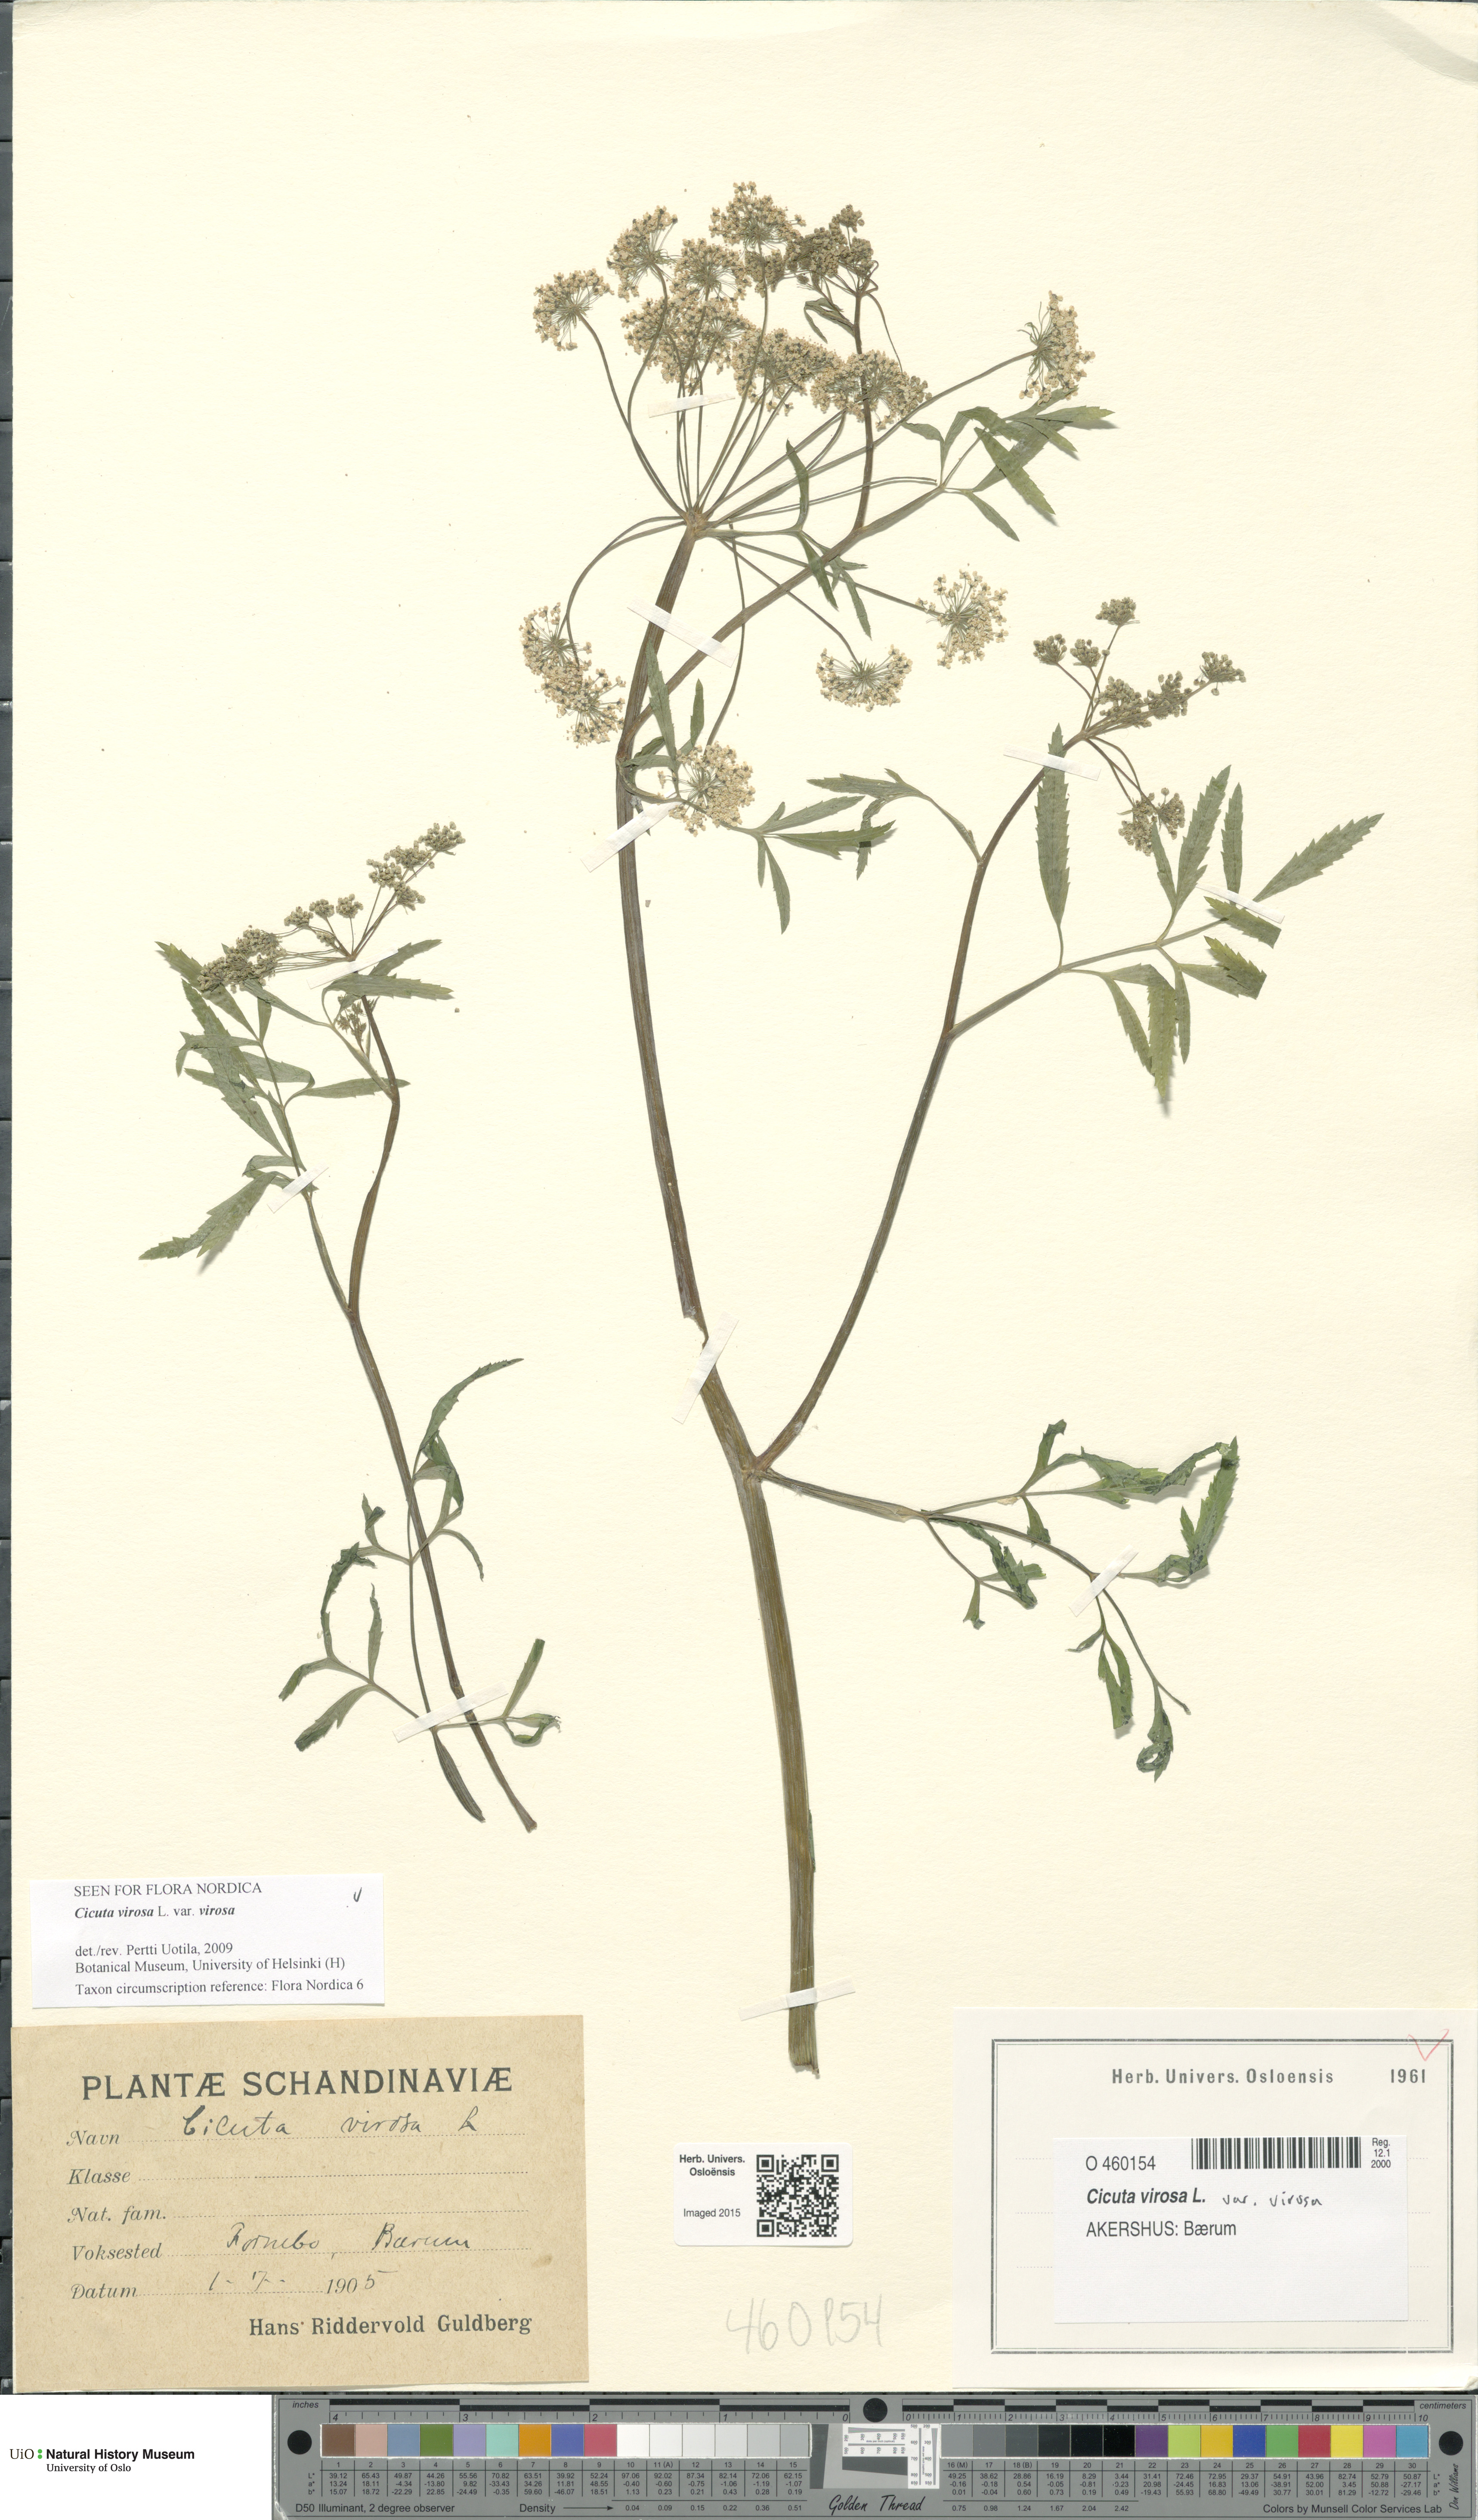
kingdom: Plantae
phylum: Tracheophyta
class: Magnoliopsida
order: Apiales
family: Apiaceae
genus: Cicuta
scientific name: Cicuta virosa
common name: Cowbane
